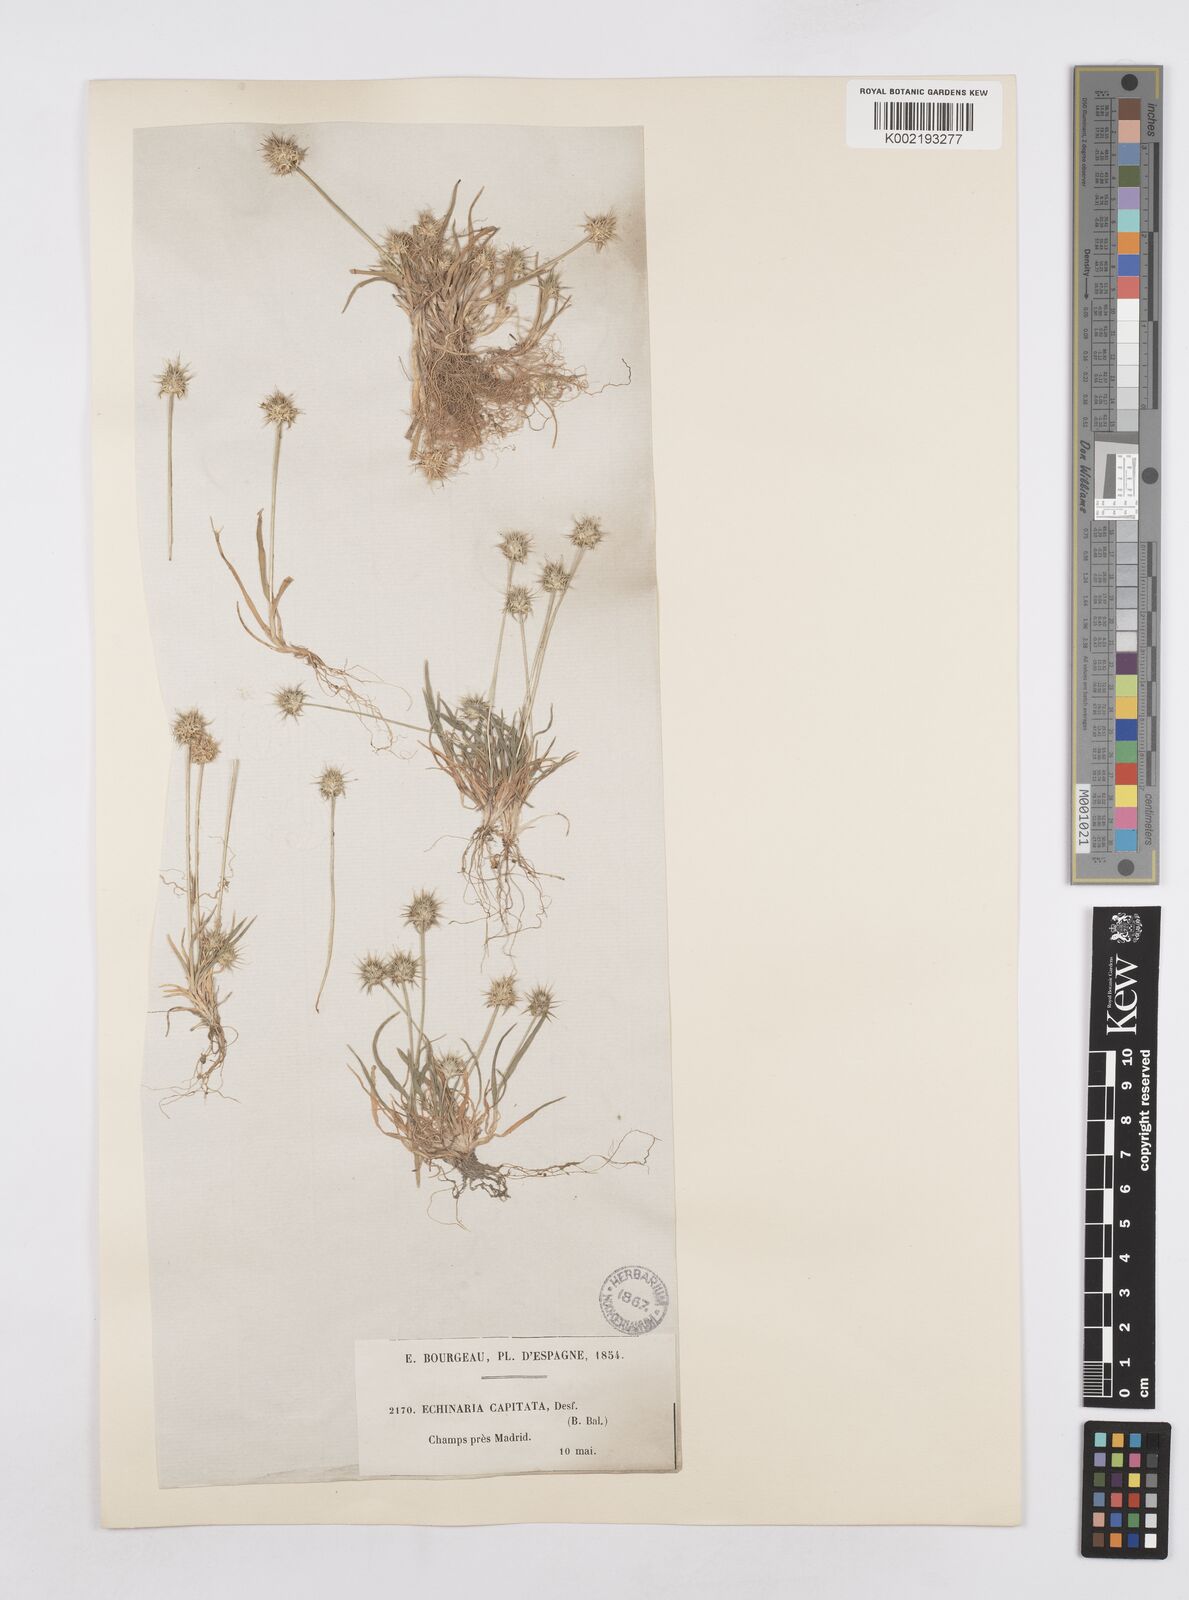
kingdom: Plantae
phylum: Tracheophyta
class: Liliopsida
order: Poales
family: Poaceae
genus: Echinaria
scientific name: Echinaria capitata
